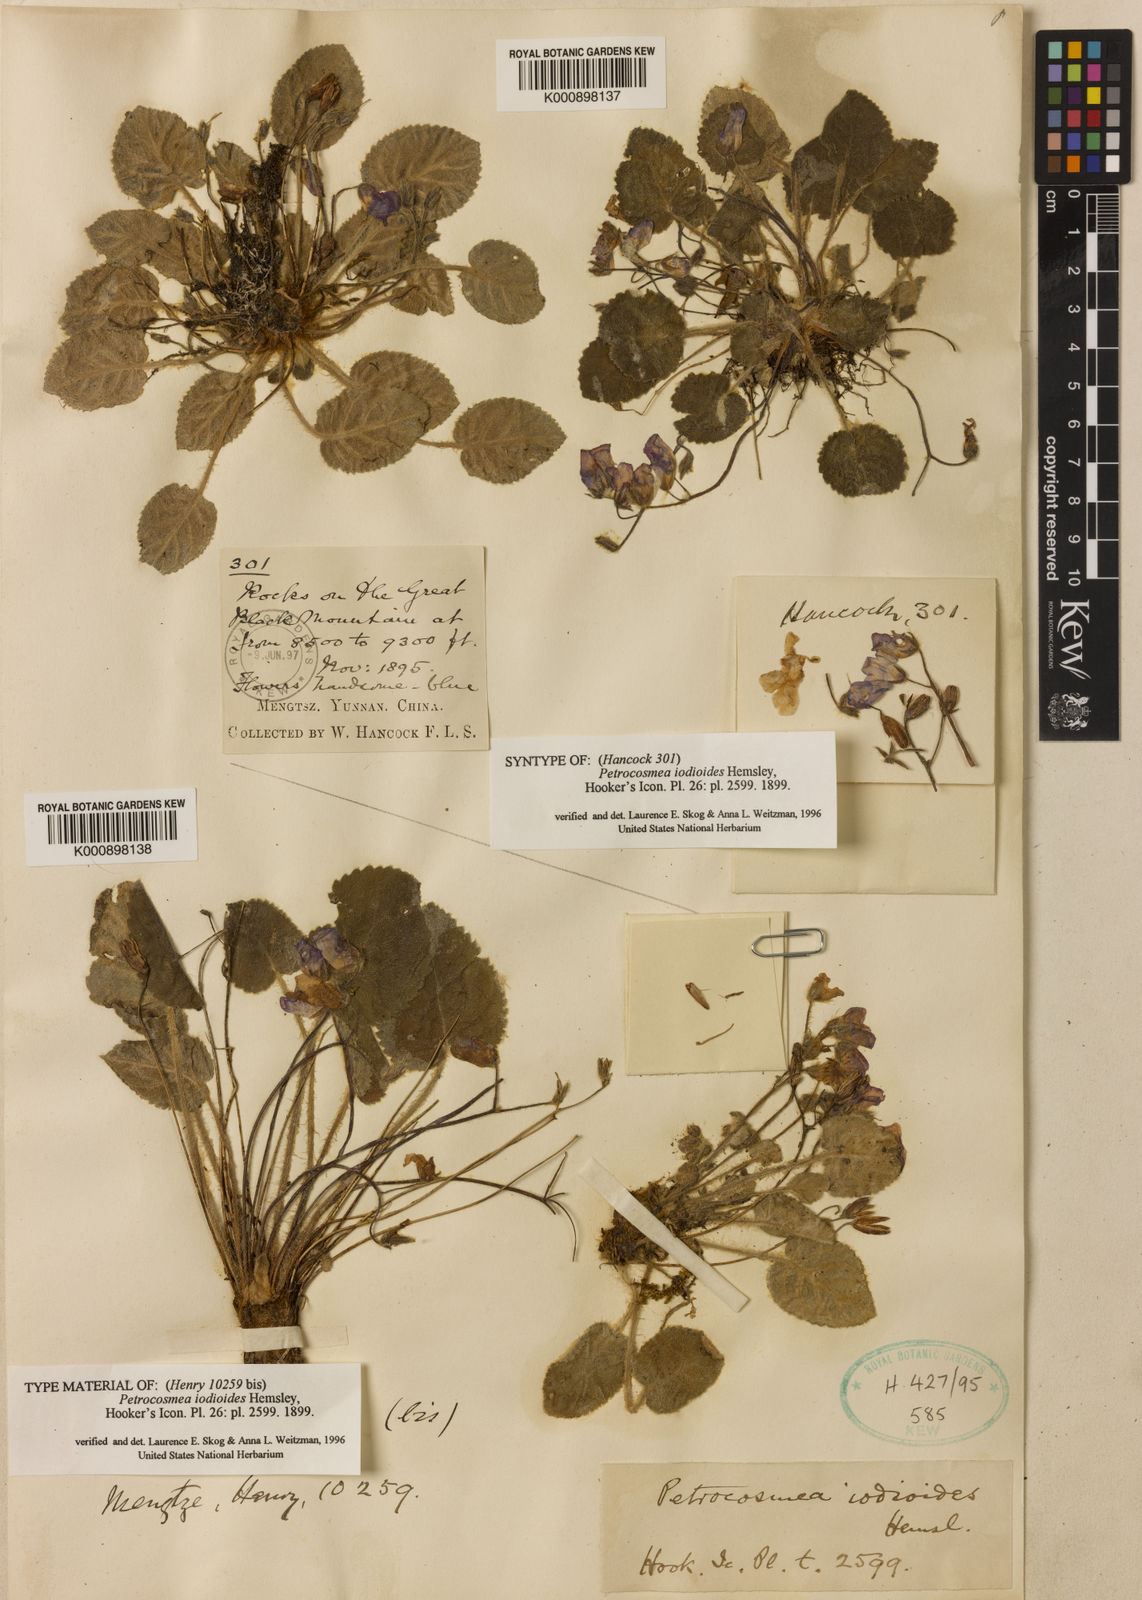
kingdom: Plantae
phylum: Tracheophyta
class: Magnoliopsida
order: Lamiales
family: Gesneriaceae
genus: Petrocosmea
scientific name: Petrocosmea iodioides
